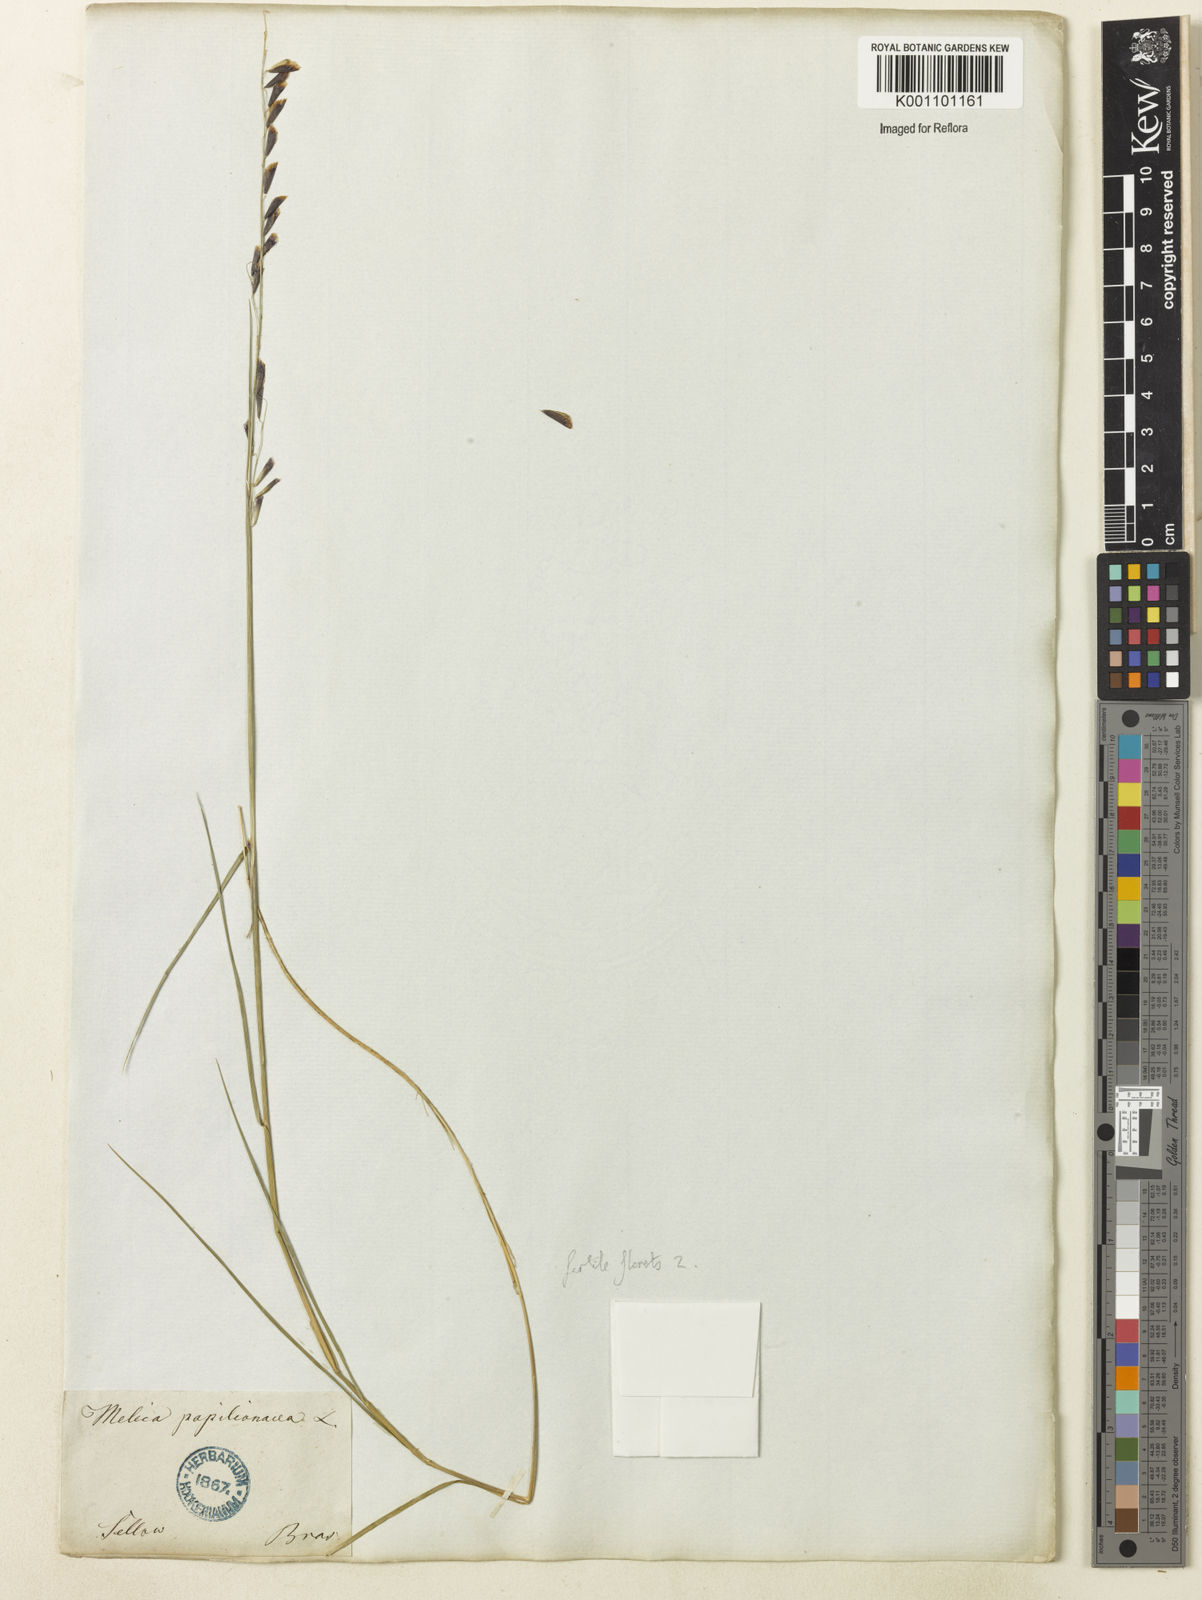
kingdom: Plantae
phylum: Tracheophyta
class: Liliopsida
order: Poales
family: Poaceae
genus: Melica
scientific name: Melica
